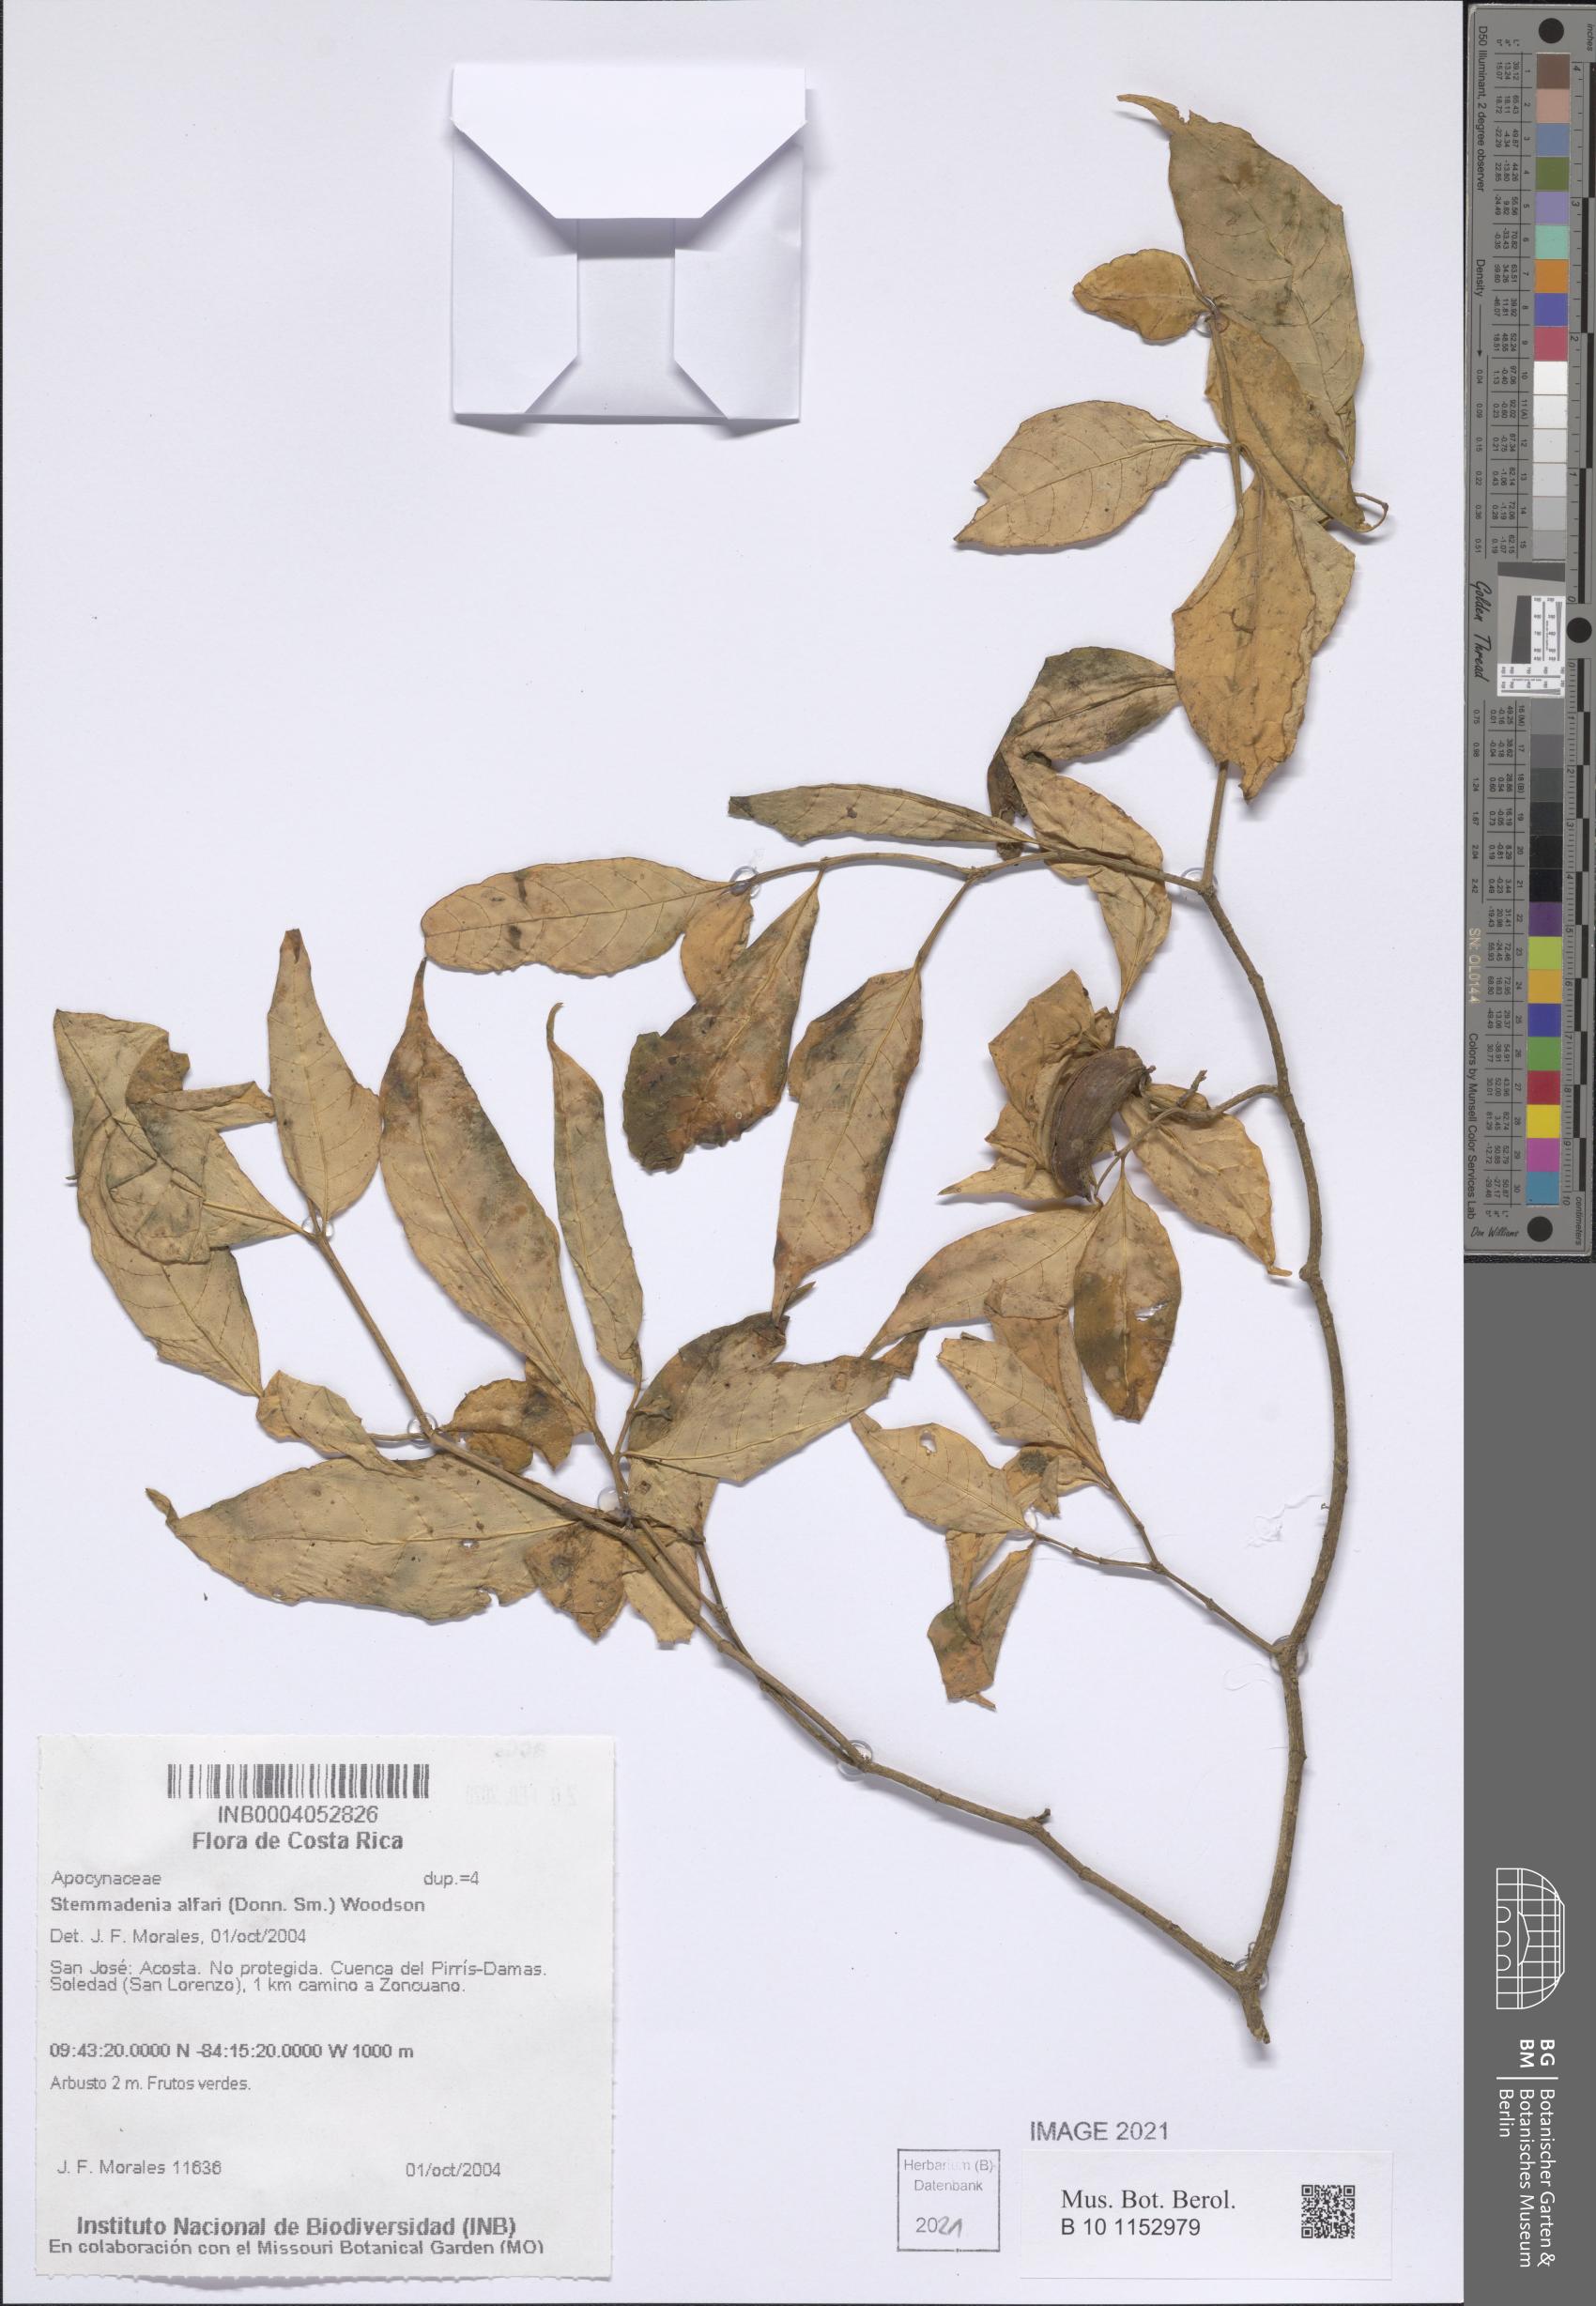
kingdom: Plantae
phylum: Tracheophyta
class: Magnoliopsida
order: Gentianales
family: Apocynaceae
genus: Tabernaemontana
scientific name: Tabernaemontana alfaroi
